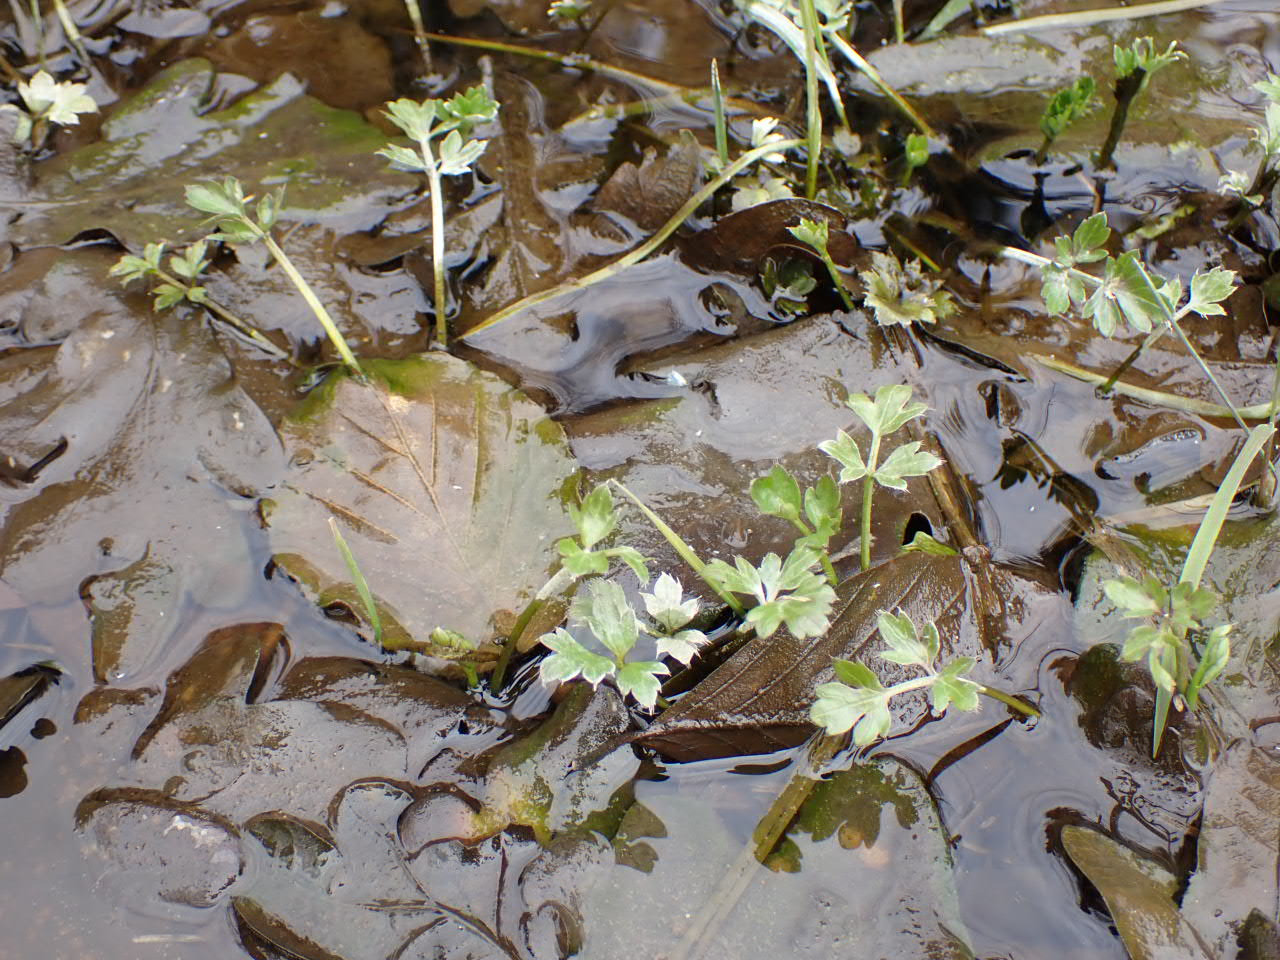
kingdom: Plantae
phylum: Tracheophyta
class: Magnoliopsida
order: Ranunculales
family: Ranunculaceae
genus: Ranunculus
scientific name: Ranunculus repens
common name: Lav ranunkel
